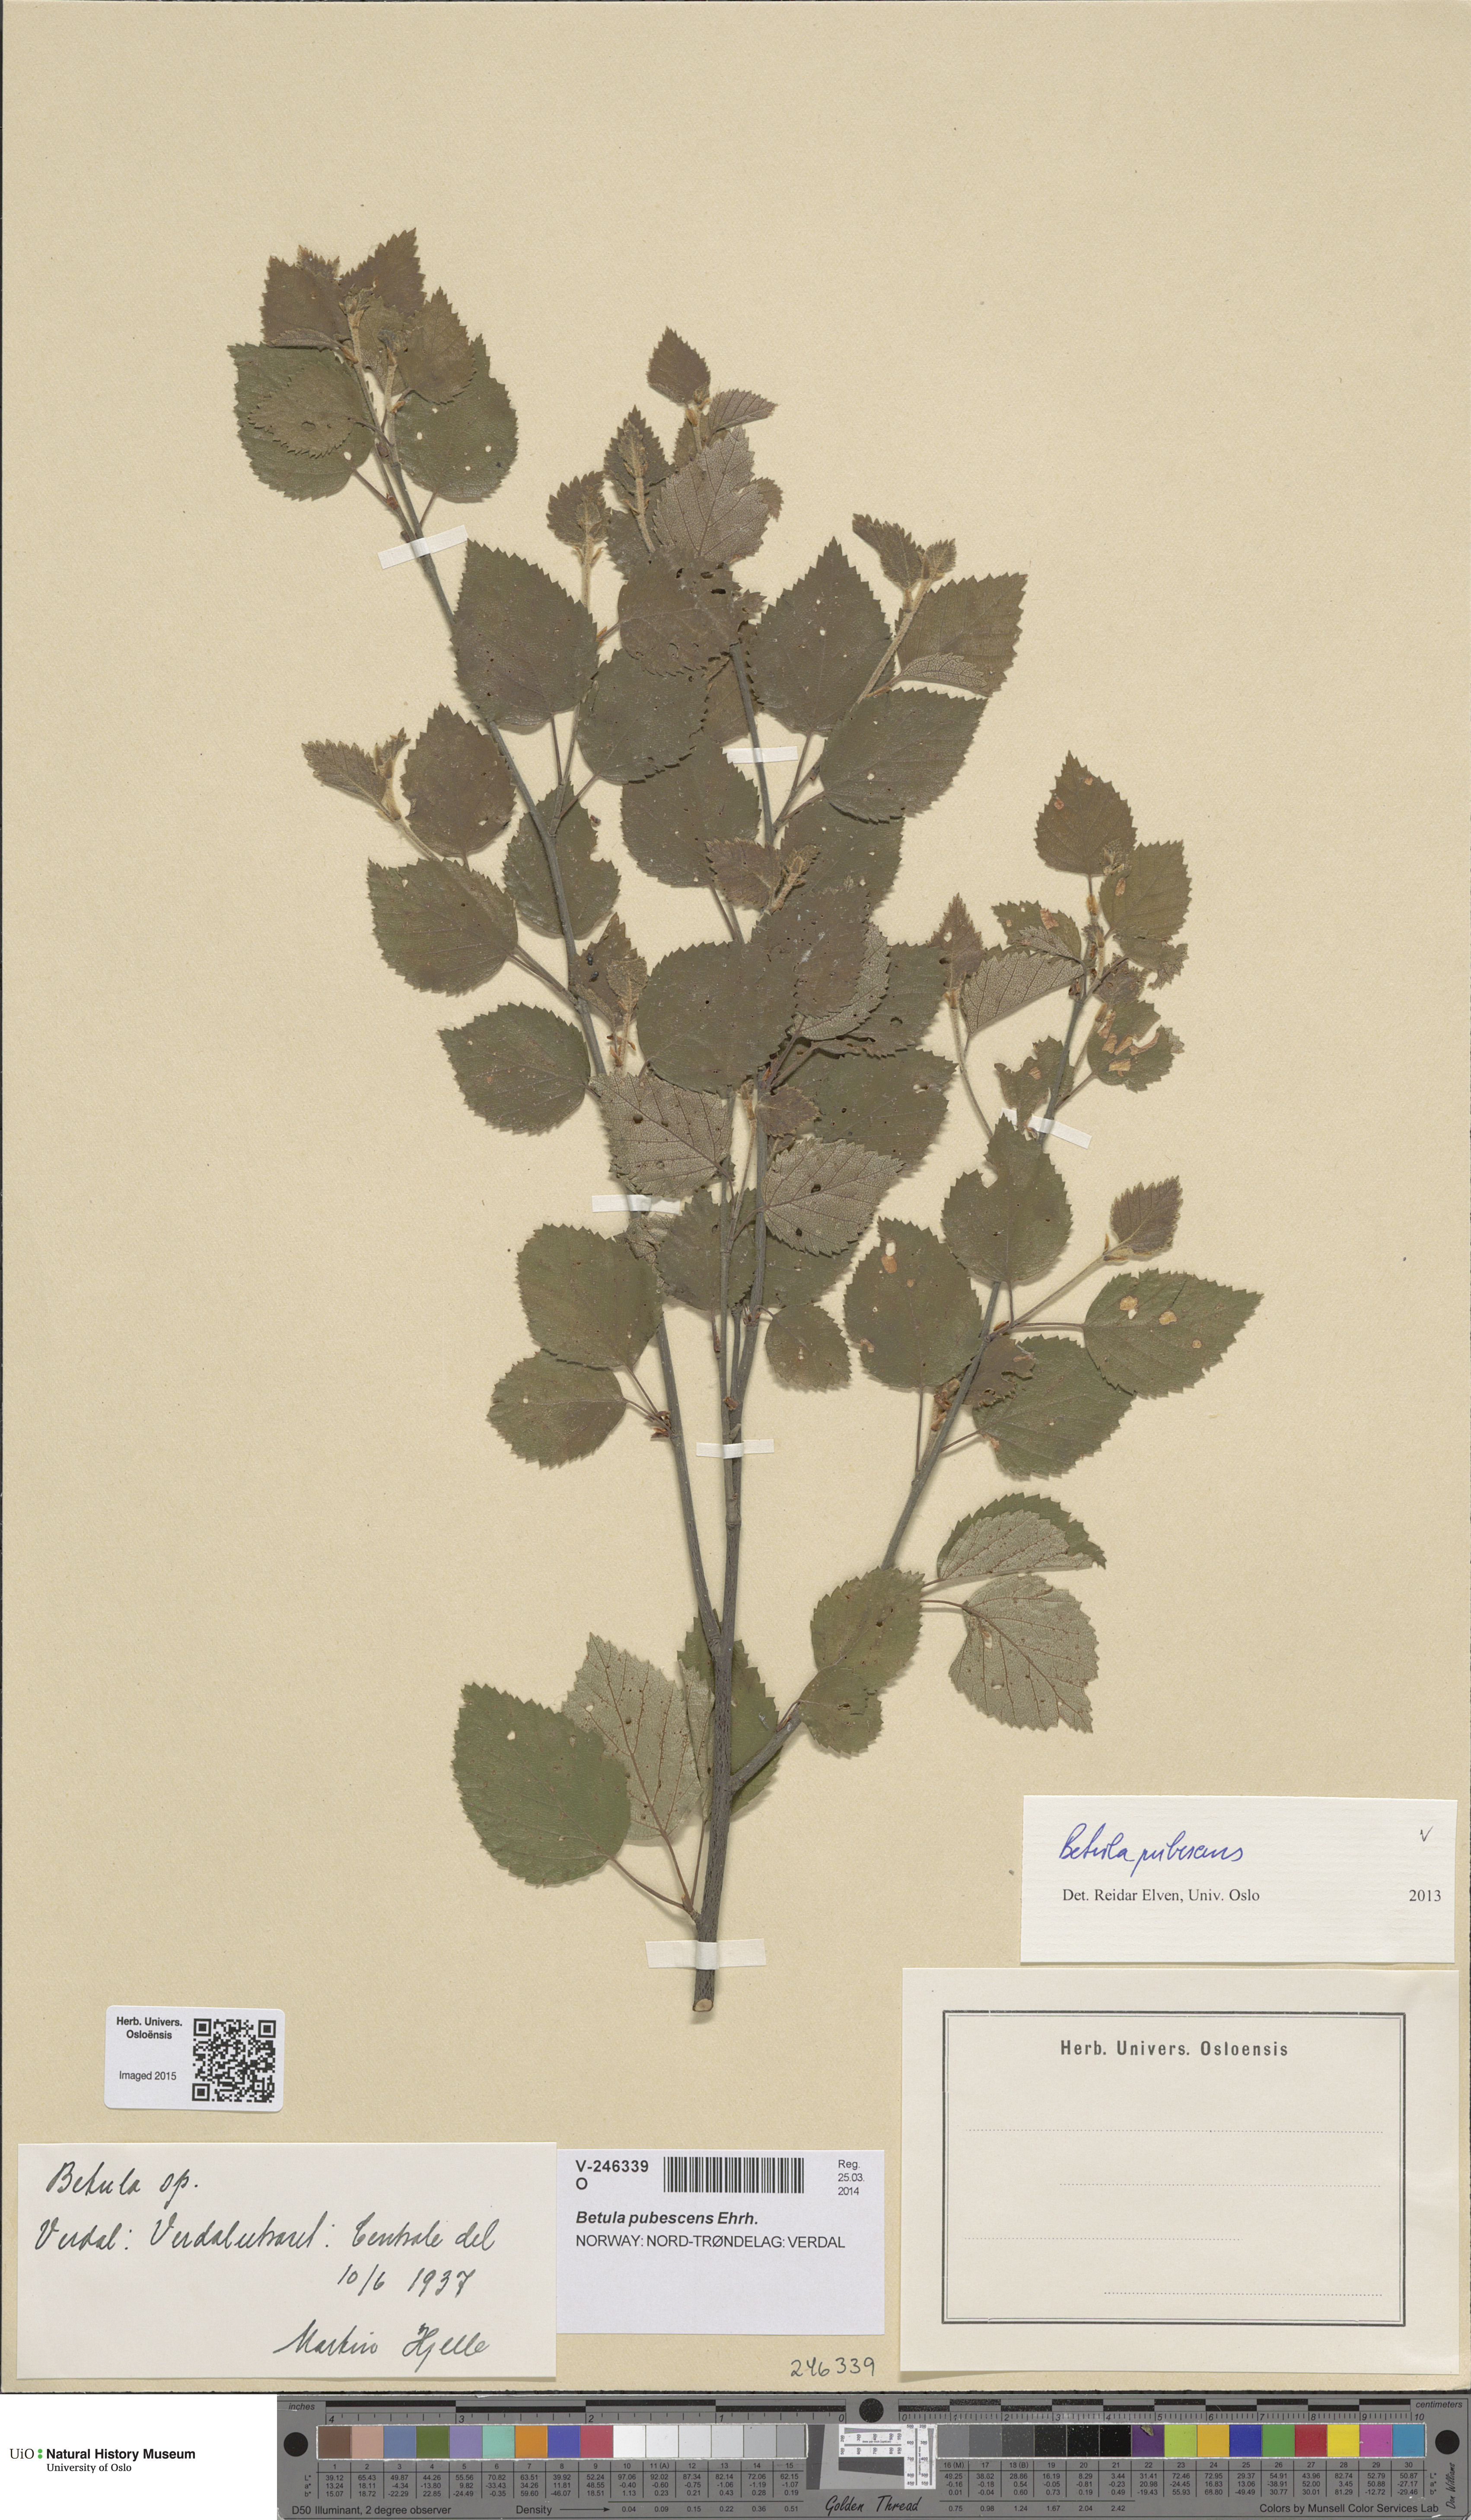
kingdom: Plantae
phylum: Tracheophyta
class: Magnoliopsida
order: Fagales
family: Betulaceae
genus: Betula
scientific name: Betula pubescens
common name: Downy birch
